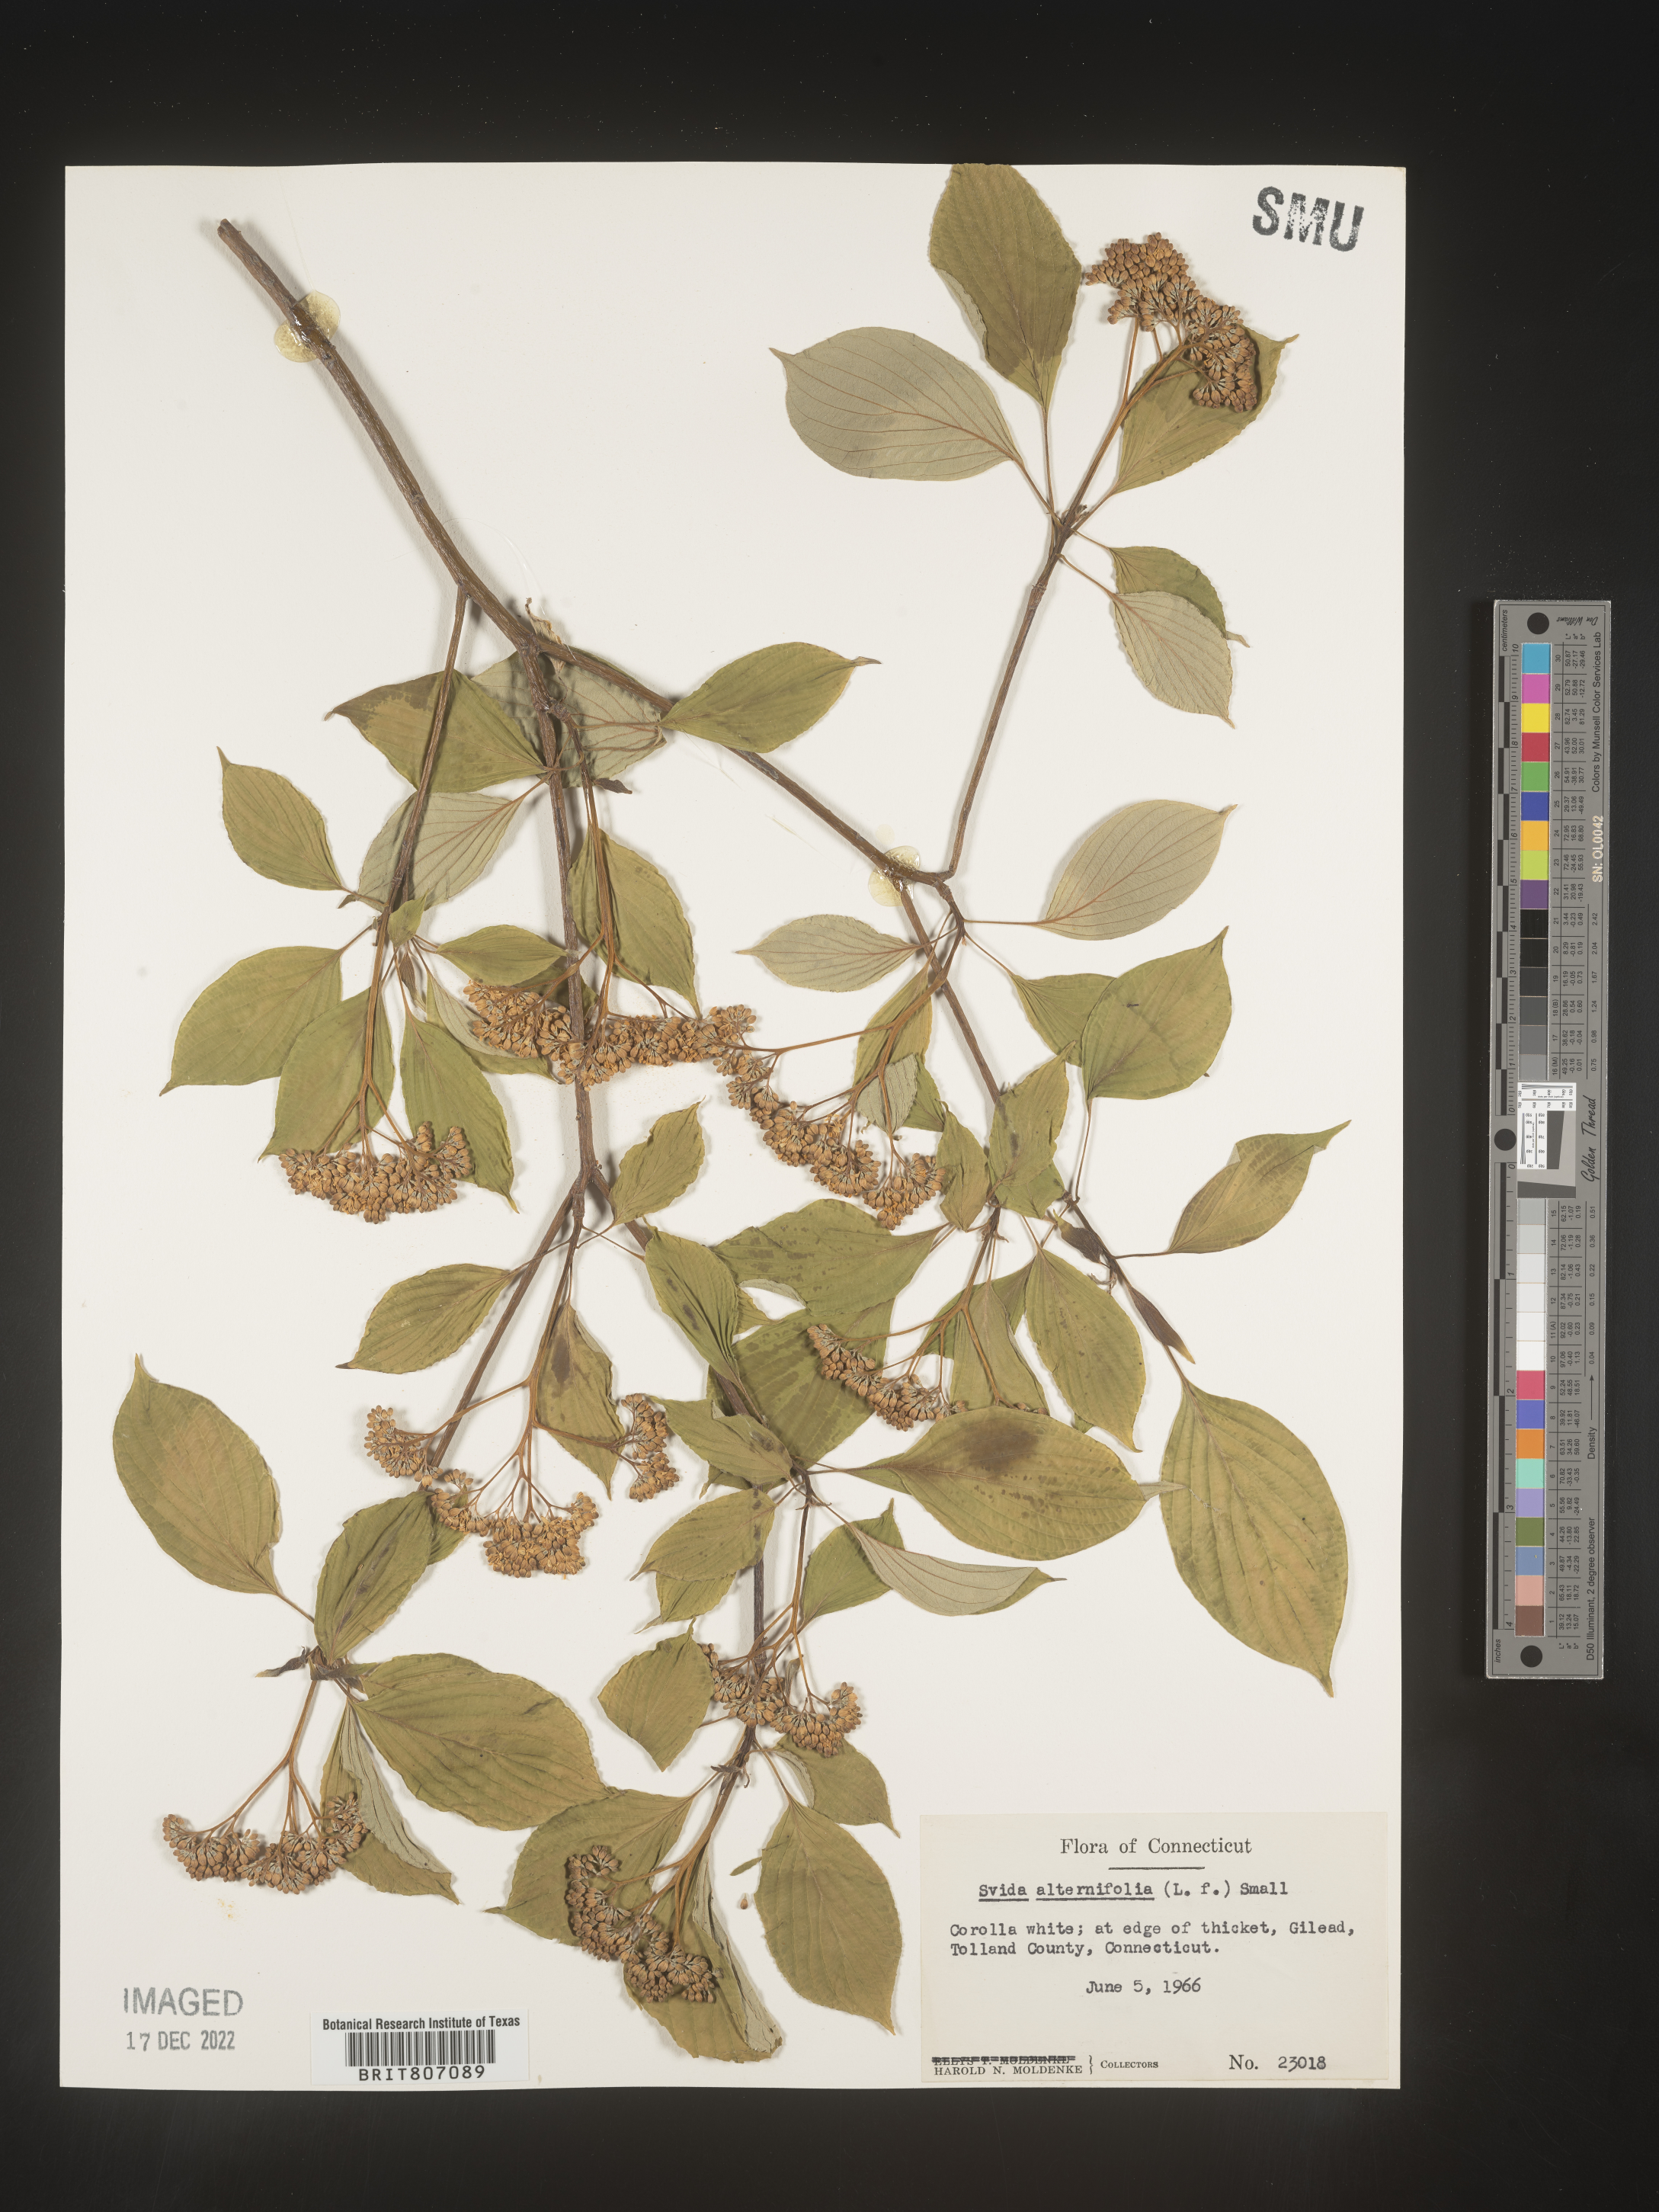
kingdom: Plantae
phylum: Tracheophyta
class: Magnoliopsida
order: Cornales
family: Cornaceae
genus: Cornus
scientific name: Cornus alternifolia
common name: Pagoda dogwood
